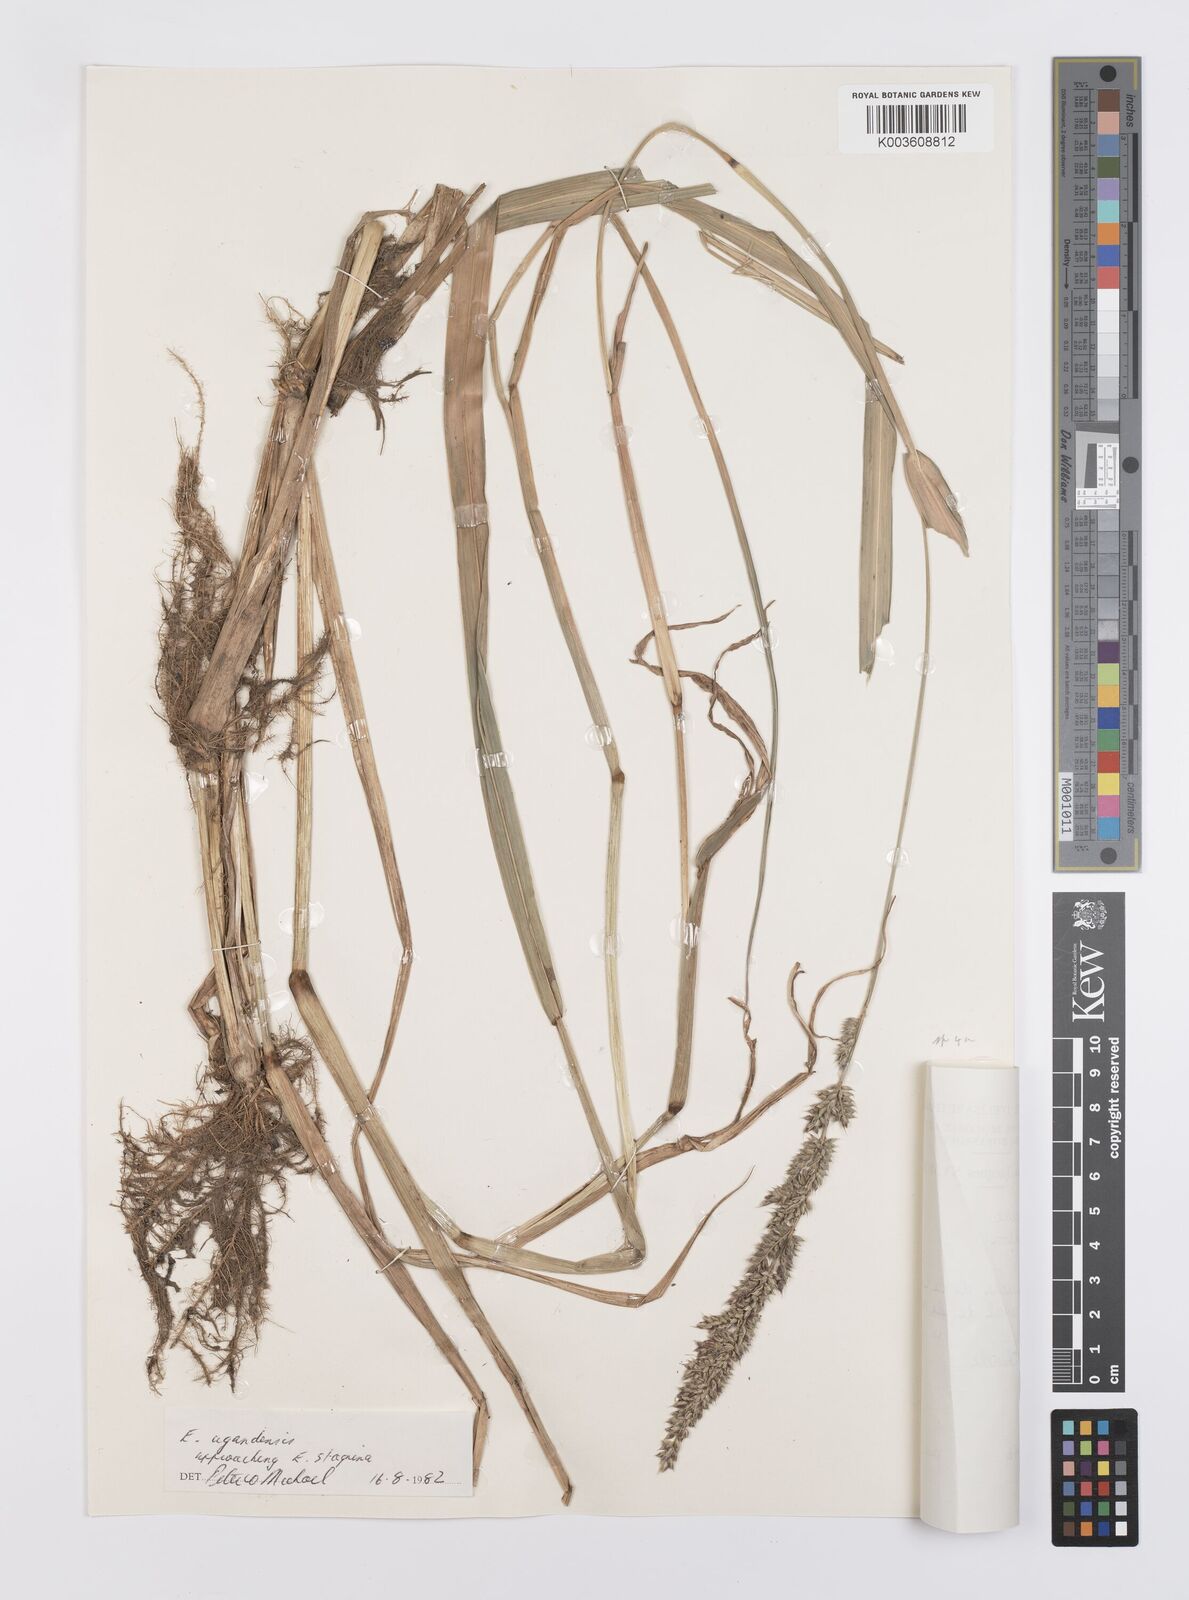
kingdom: Plantae
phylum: Tracheophyta
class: Liliopsida
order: Poales
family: Poaceae
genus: Echinochloa
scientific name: Echinochloa stagnina
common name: Burgu grass
